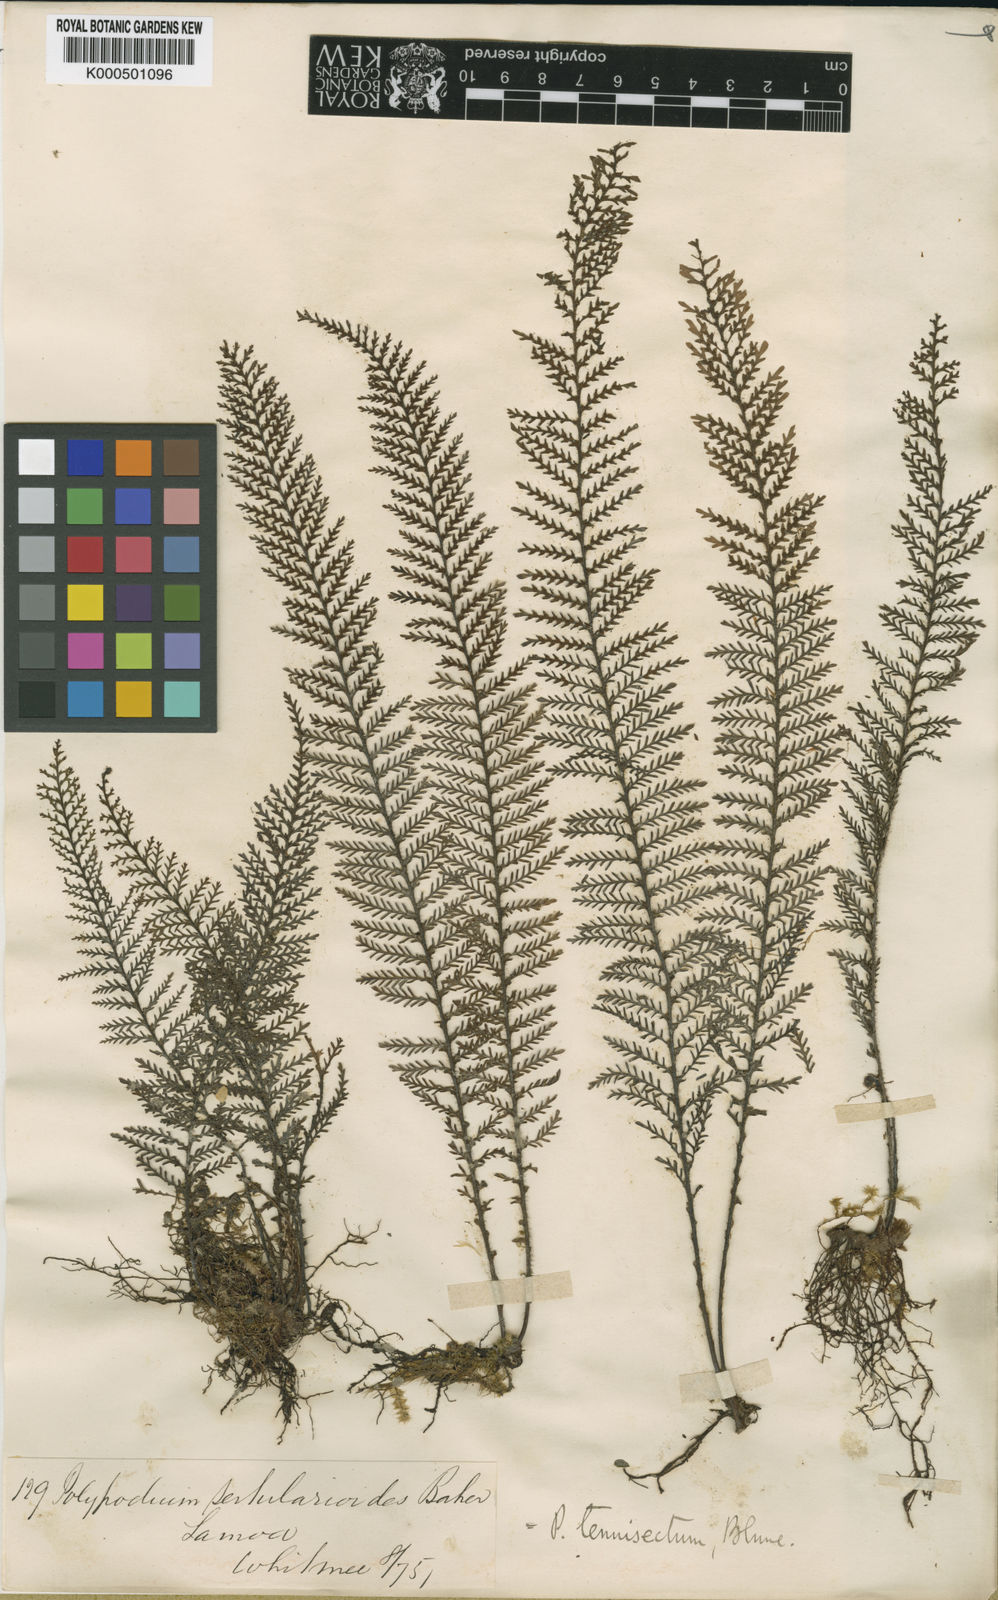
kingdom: Plantae
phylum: Tracheophyta
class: Polypodiopsida
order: Polypodiales
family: Polypodiaceae
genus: Oreogrammitis
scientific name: Oreogrammitis tenuisecta
